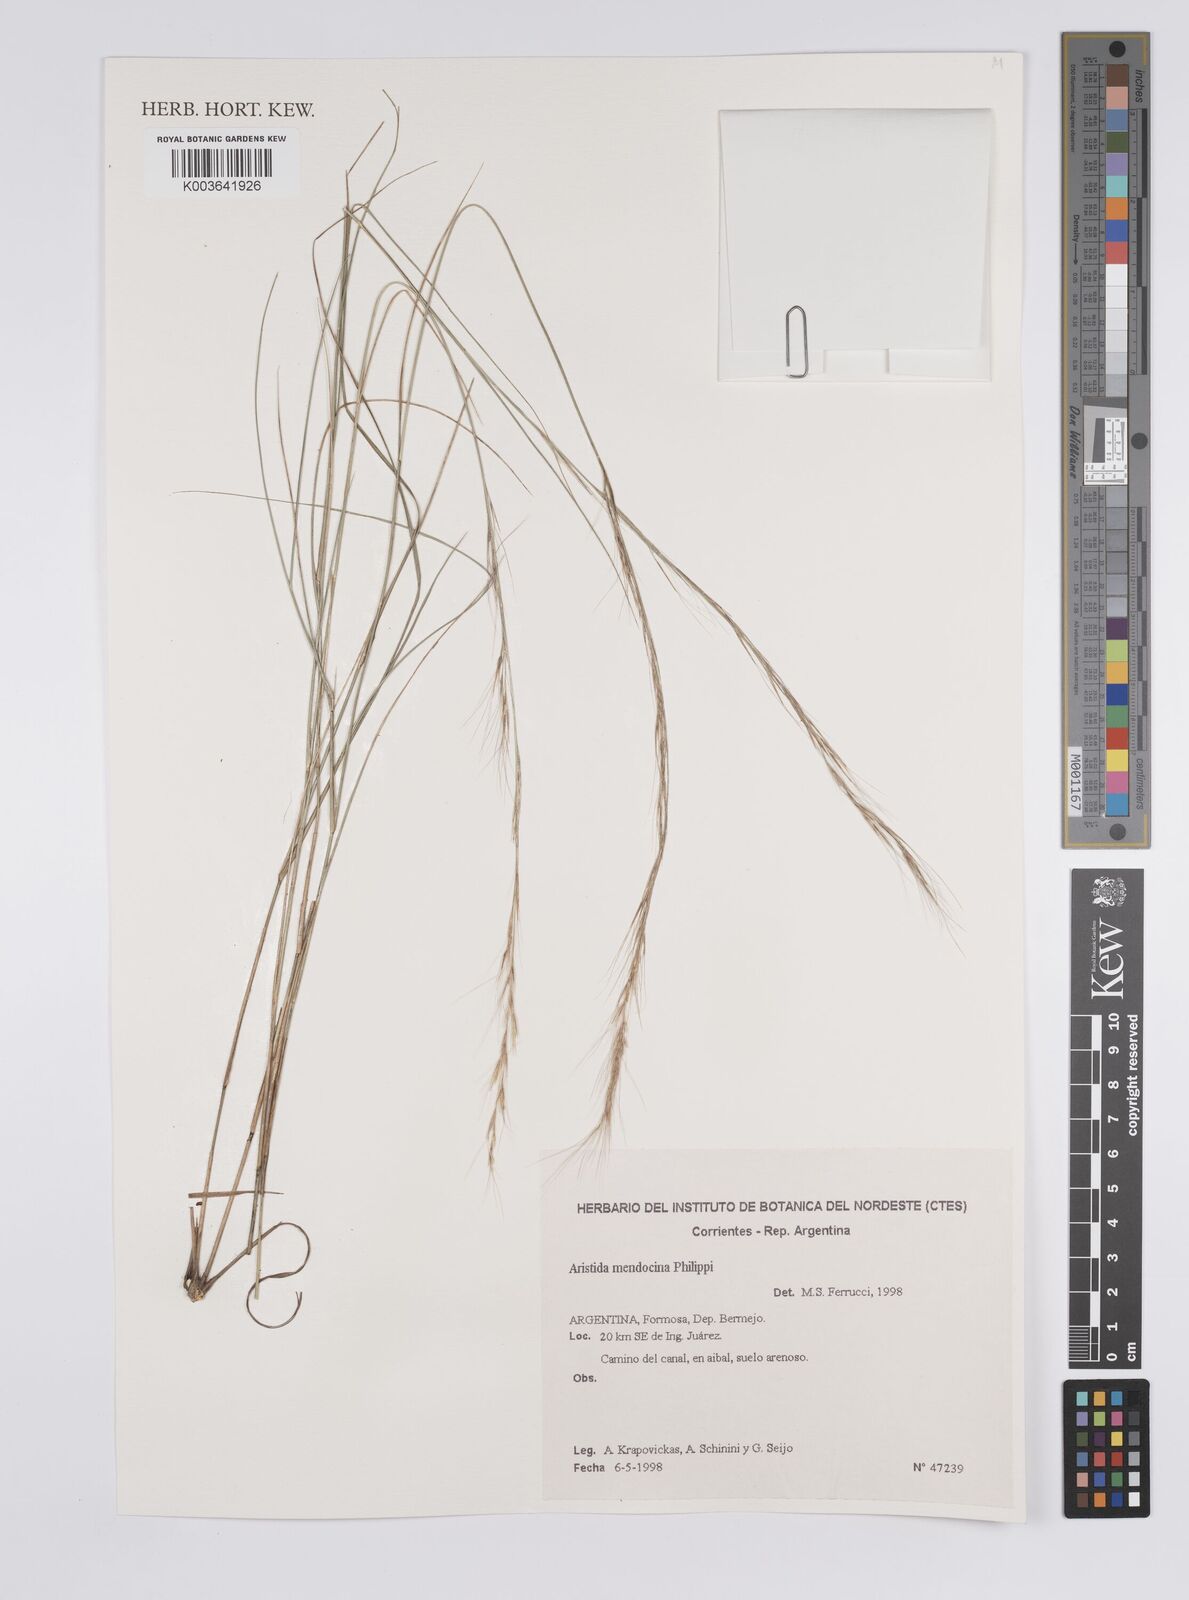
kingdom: Plantae
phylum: Tracheophyta
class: Liliopsida
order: Poales
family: Poaceae
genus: Aristida
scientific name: Aristida mendocina
